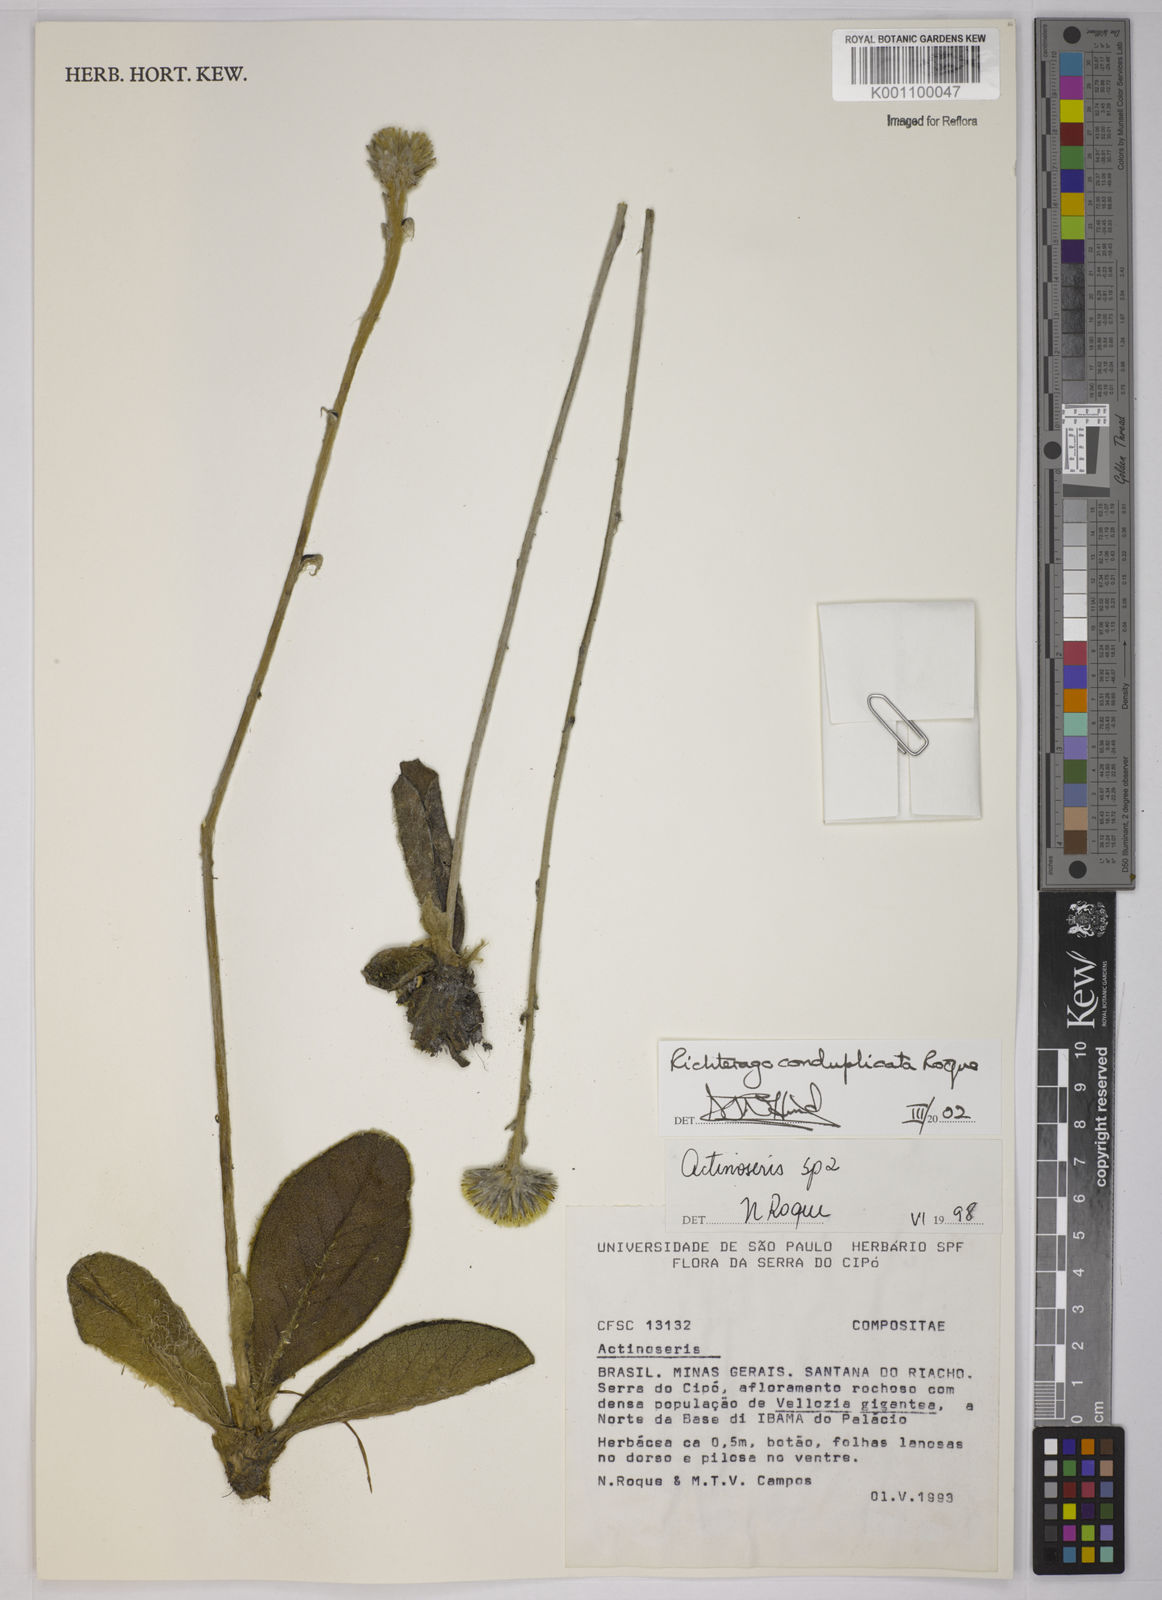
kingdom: Plantae
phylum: Tracheophyta
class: Magnoliopsida
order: Asterales
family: Asteraceae
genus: Richterago
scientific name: Richterago conduplicata
